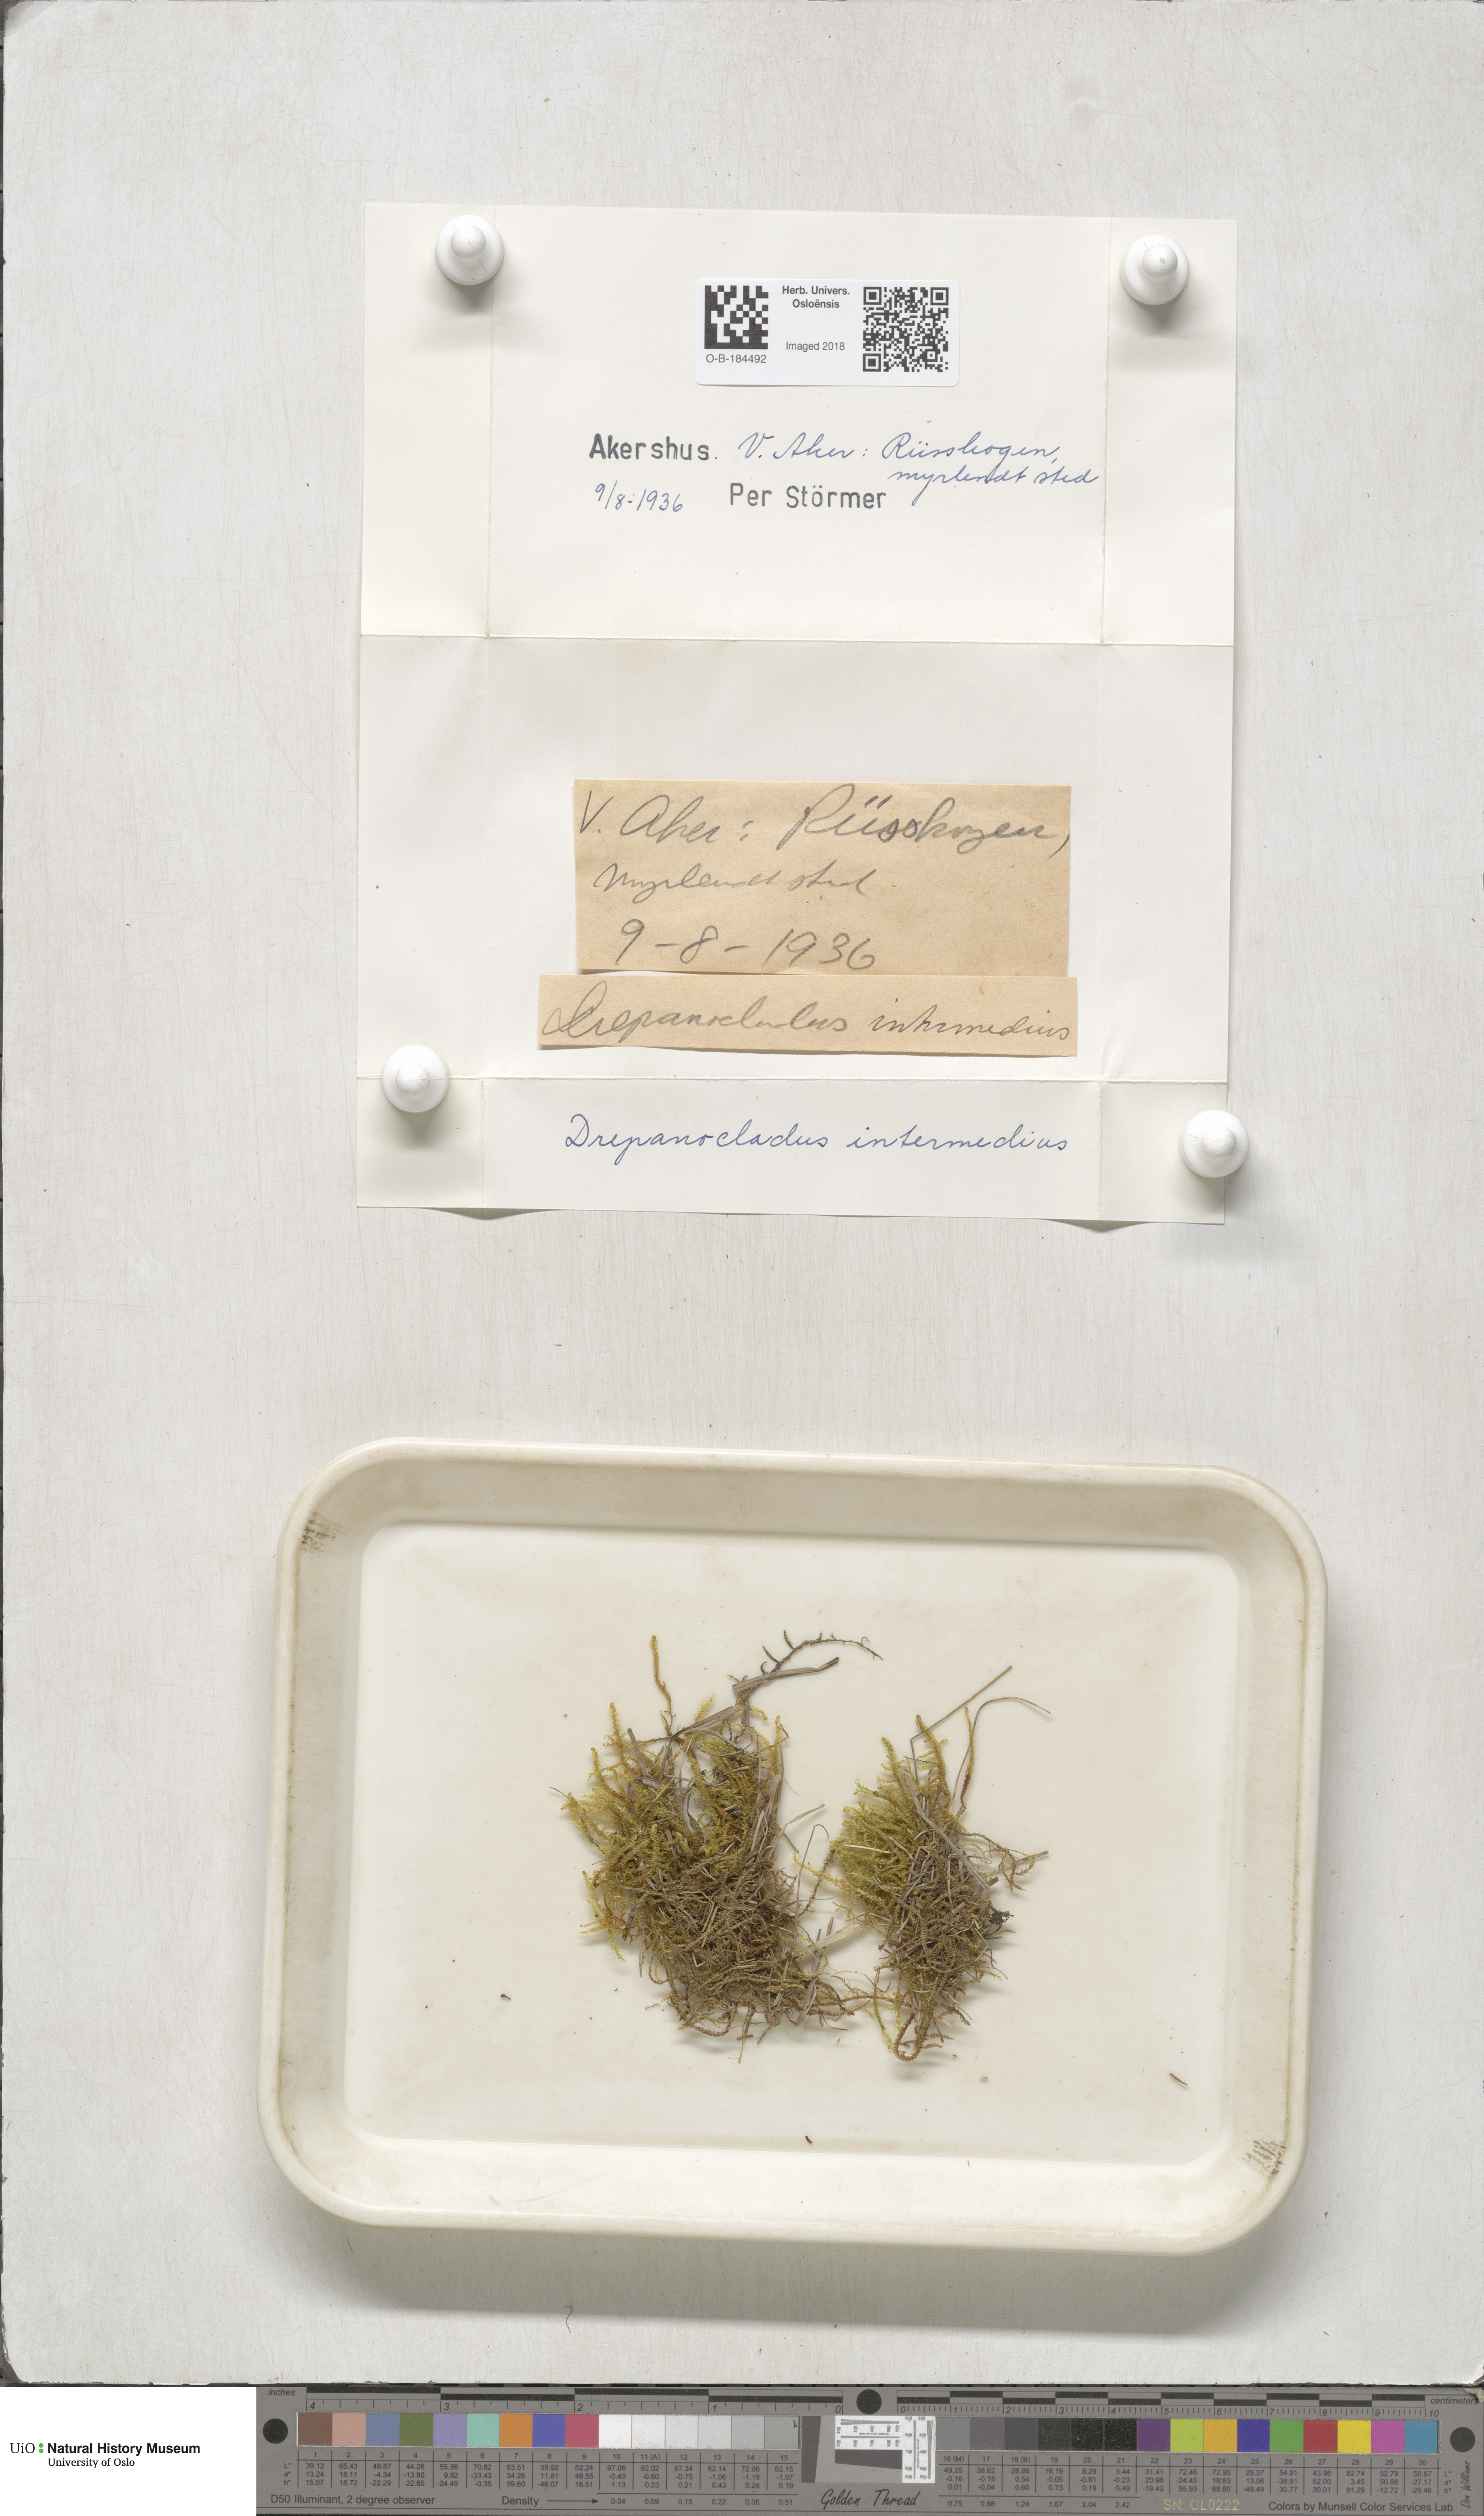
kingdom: Plantae
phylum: Bryophyta
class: Bryopsida
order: Hypnales
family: Scorpidiaceae
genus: Scorpidium
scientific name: Scorpidium cossonii
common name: Cosson's hook moss
